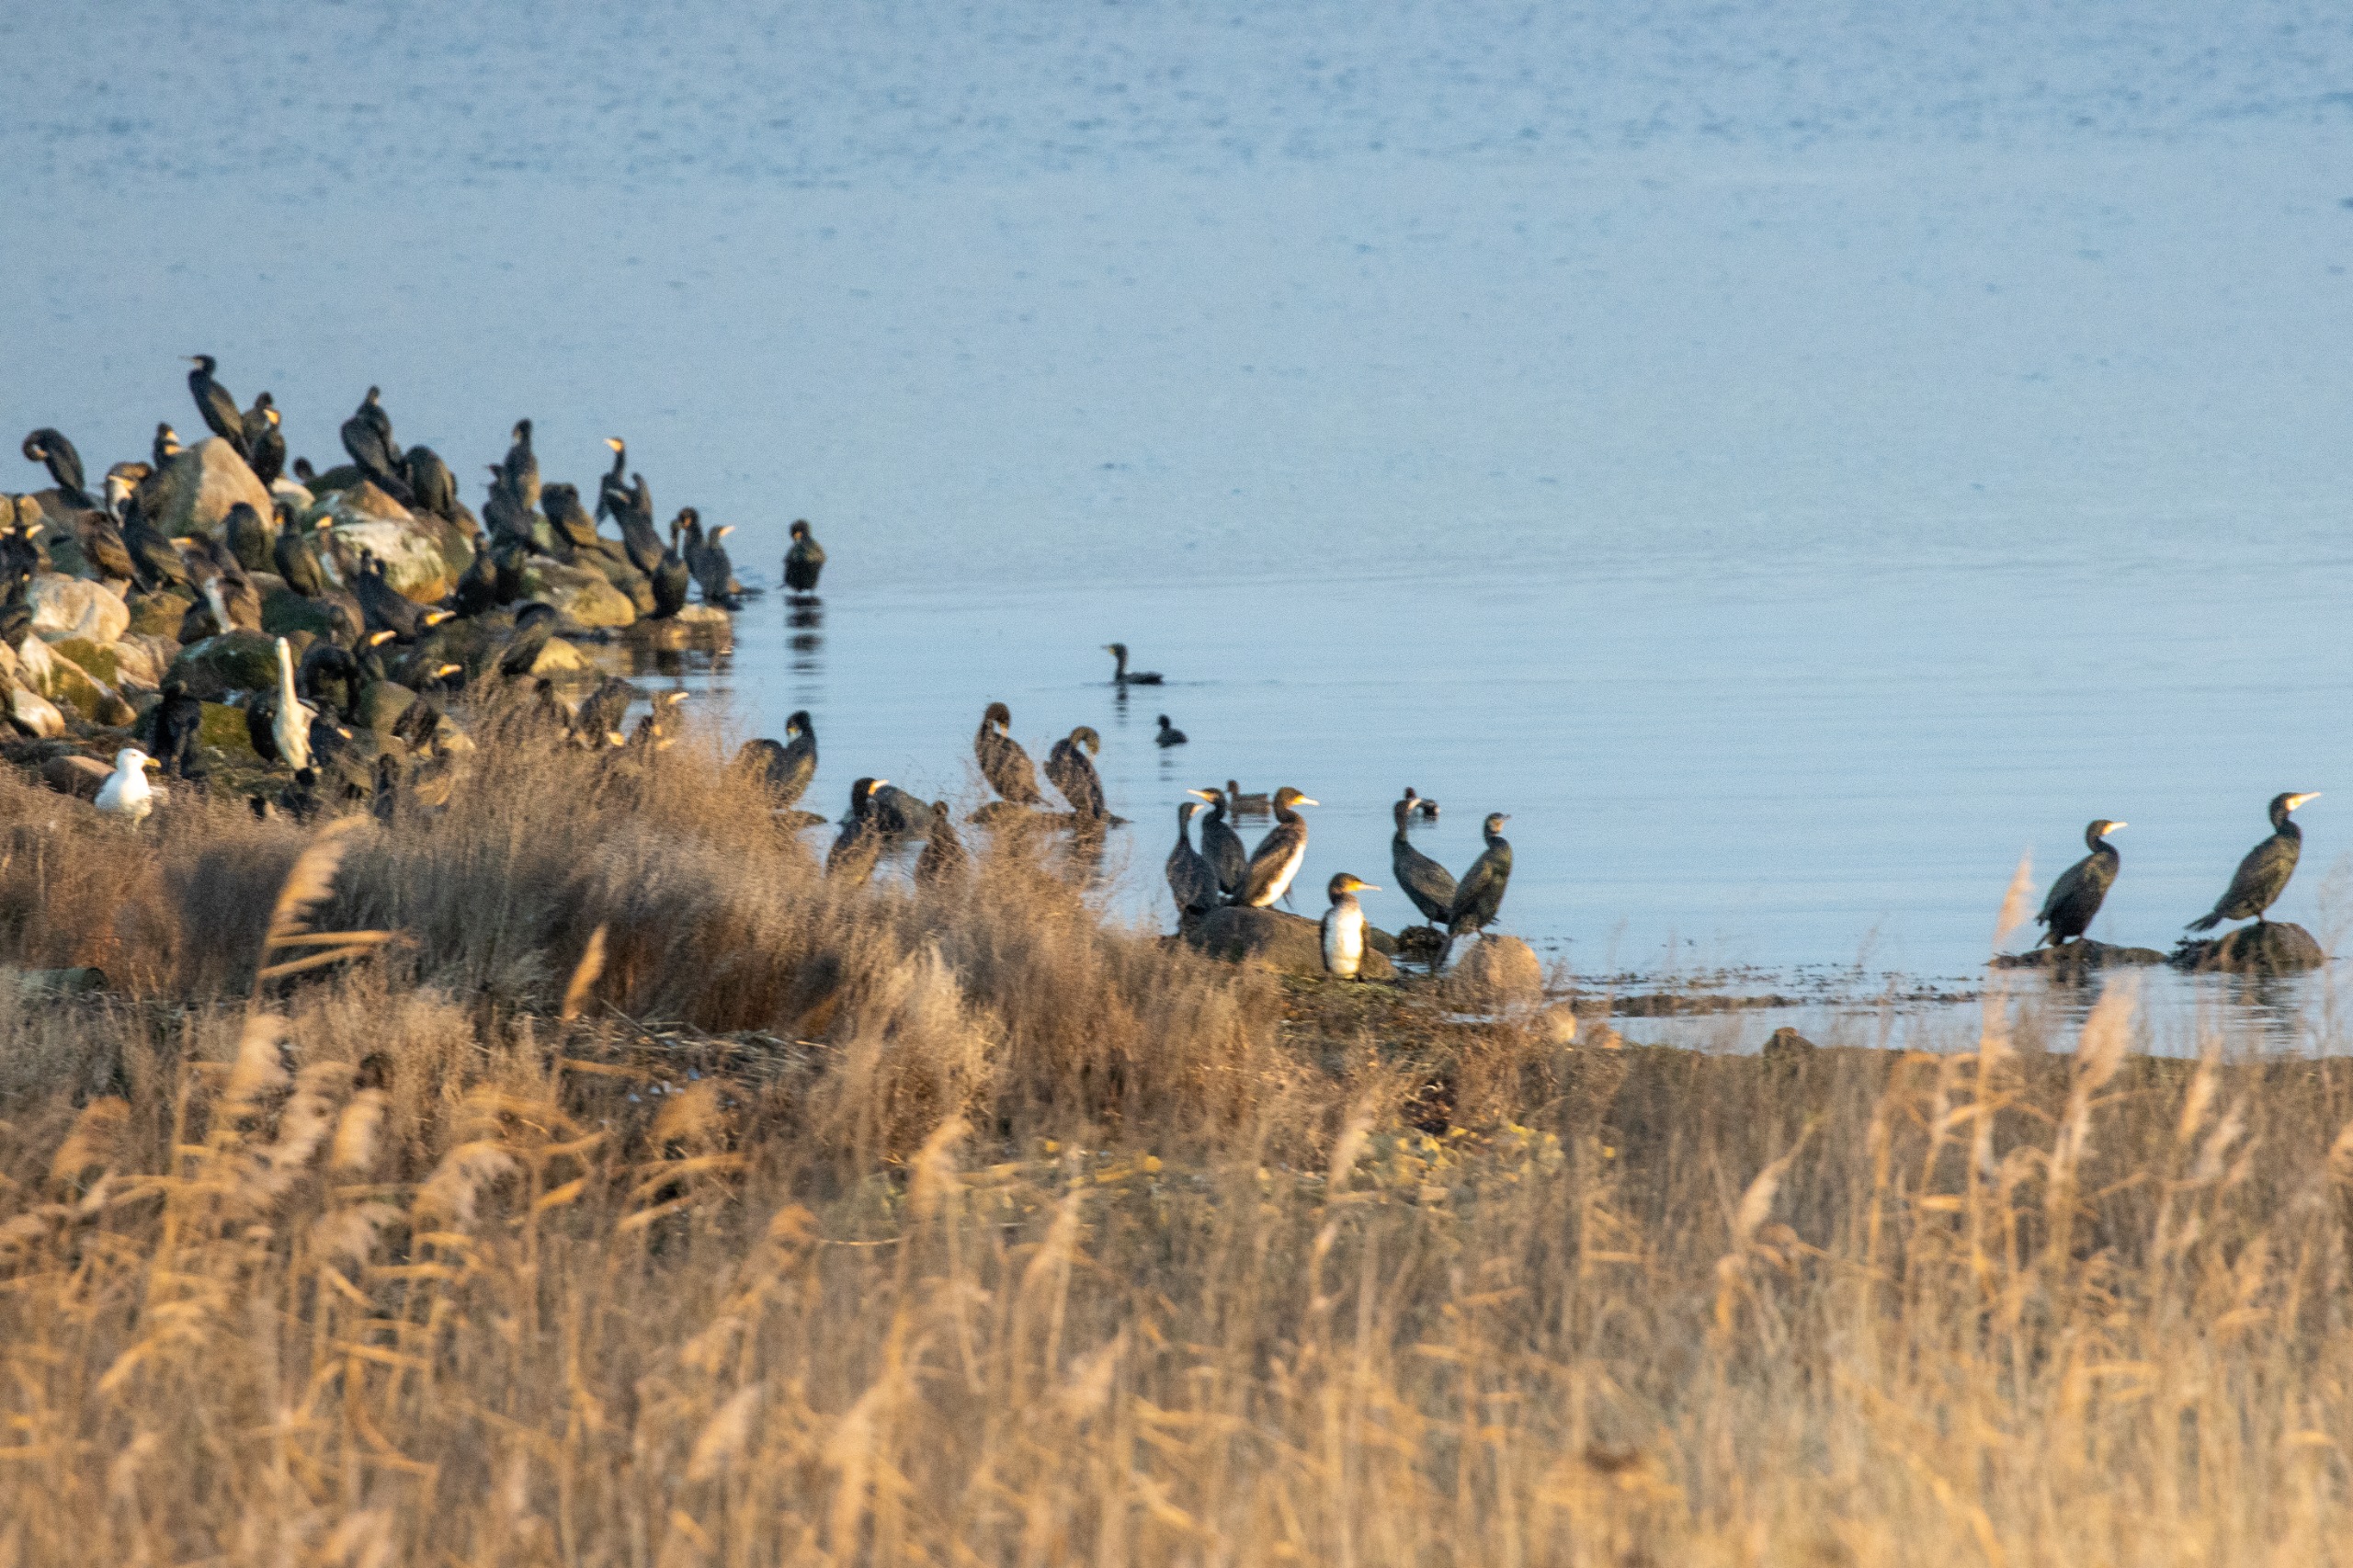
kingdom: Animalia
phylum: Chordata
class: Aves
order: Suliformes
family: Phalacrocoracidae
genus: Phalacrocorax
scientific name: Phalacrocorax carbo
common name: Skarv
